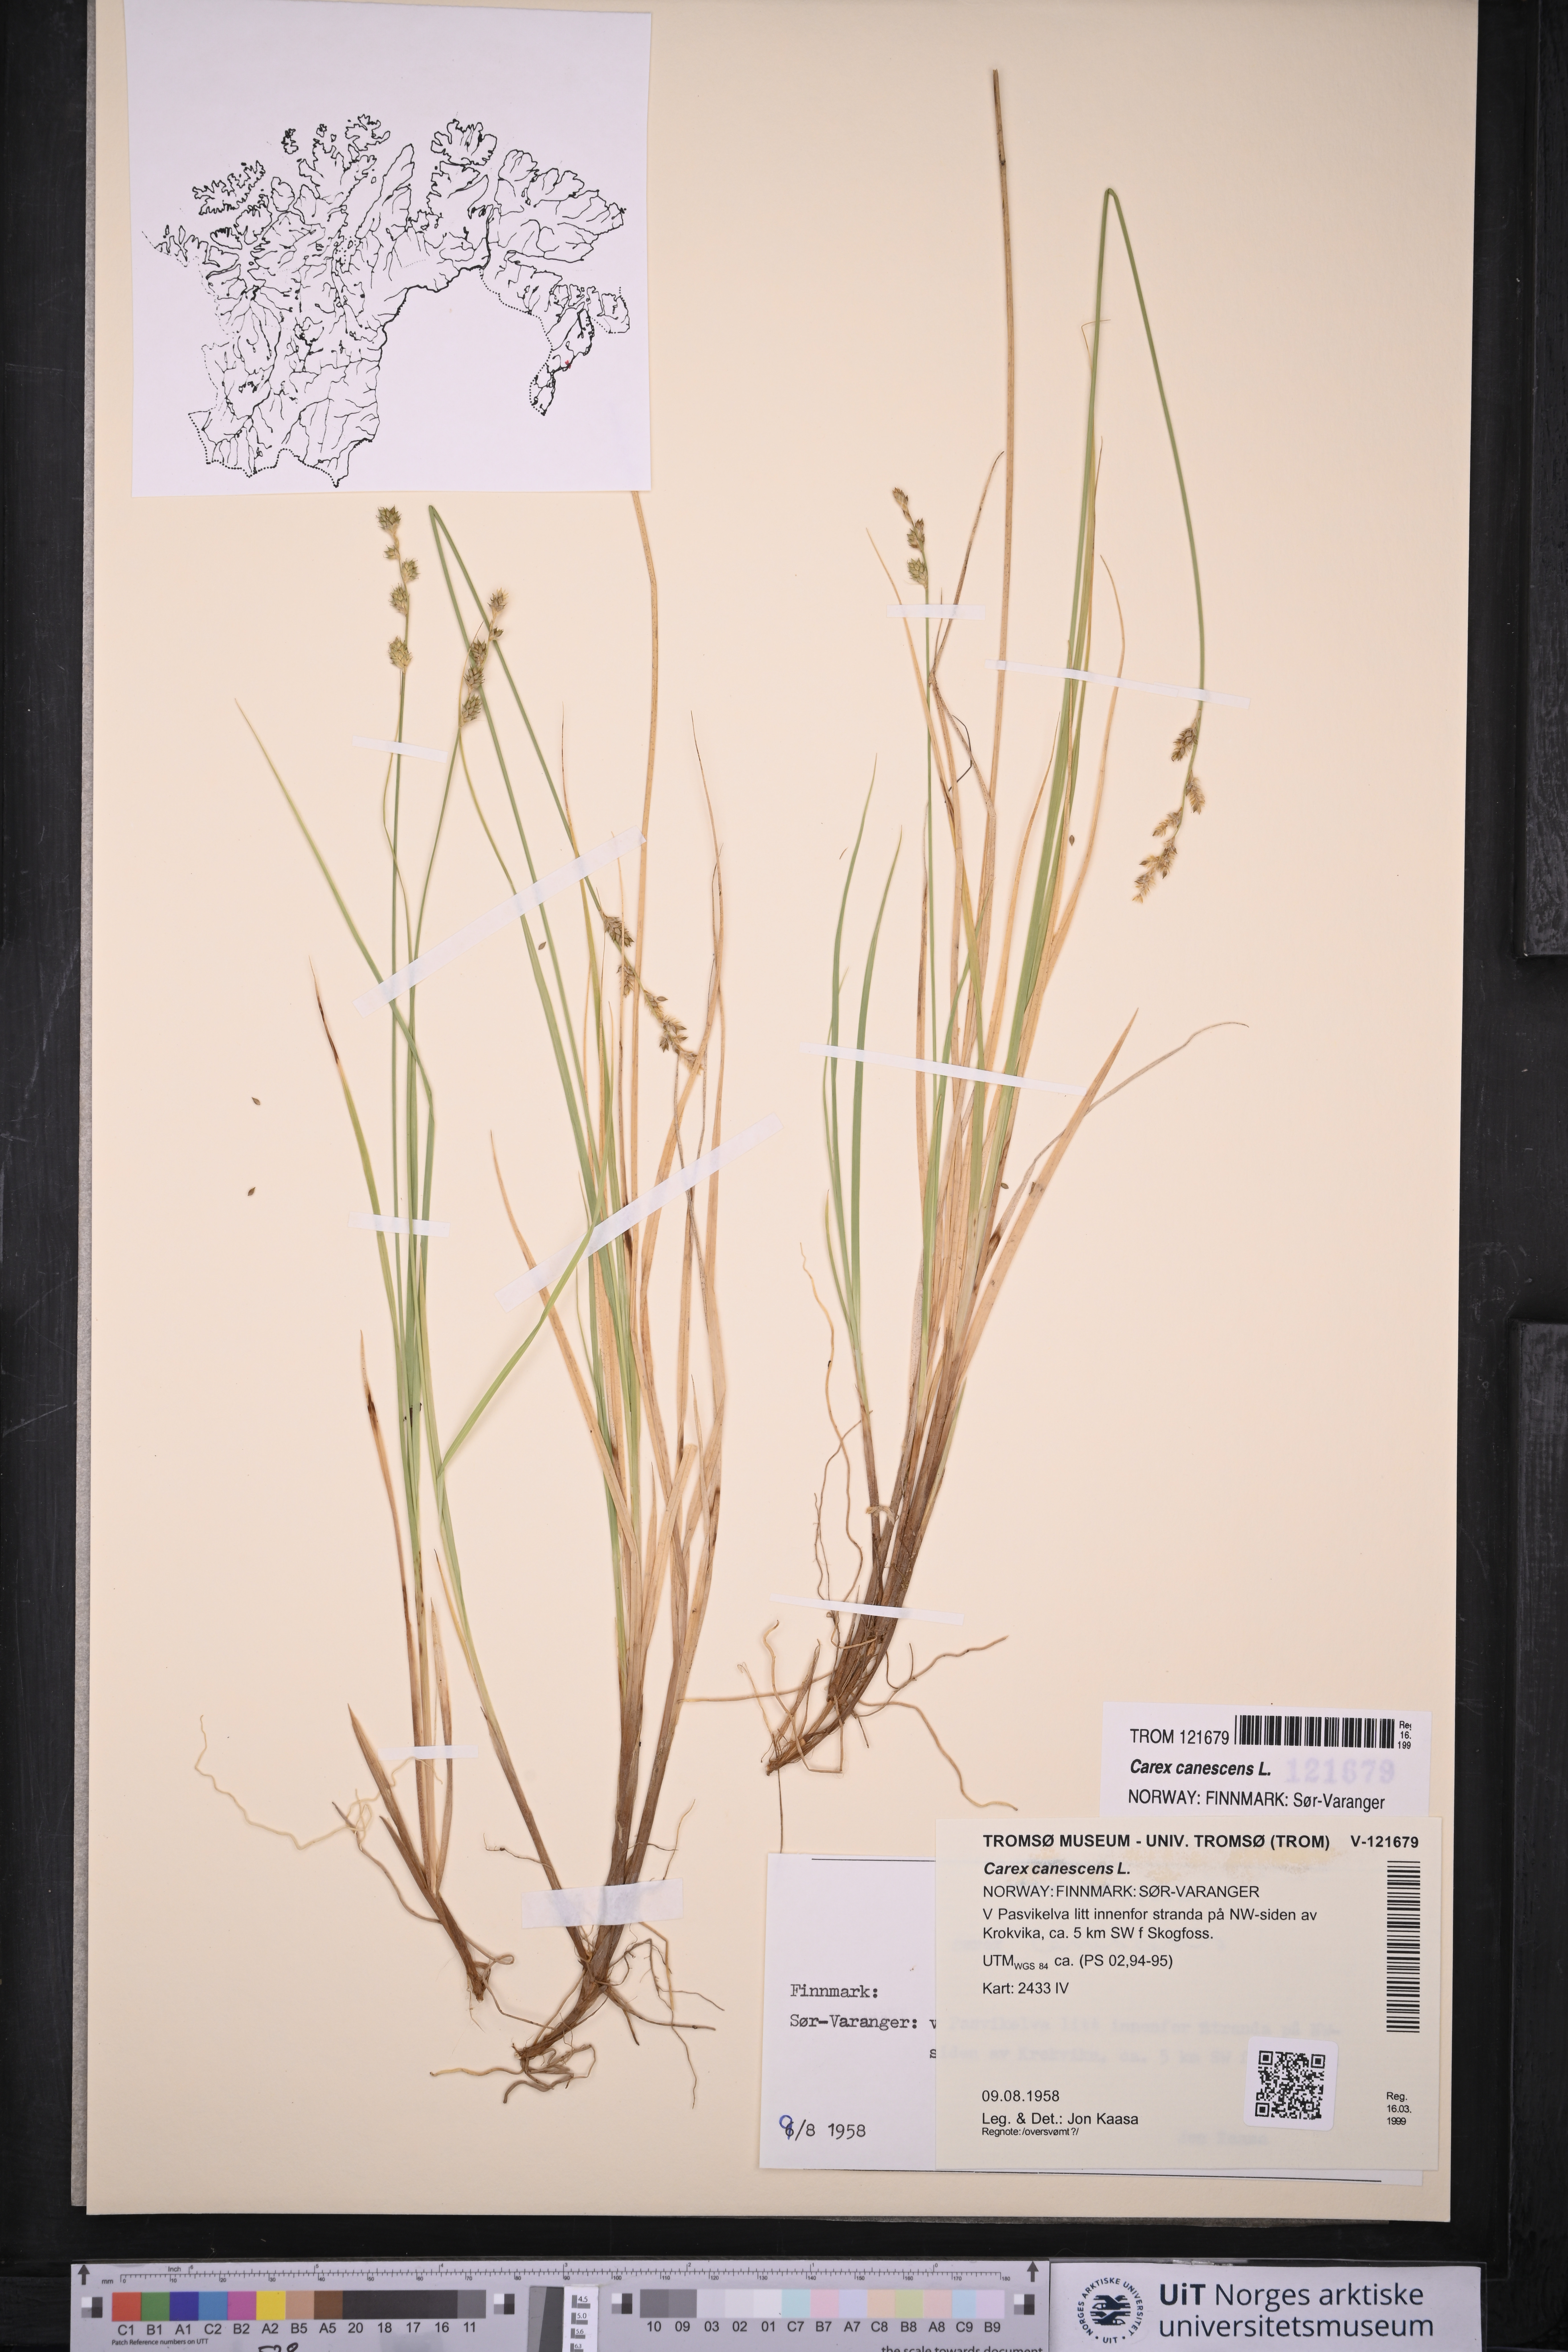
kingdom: Plantae
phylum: Tracheophyta
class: Liliopsida
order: Poales
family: Cyperaceae
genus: Carex
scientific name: Carex canescens
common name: White sedge
